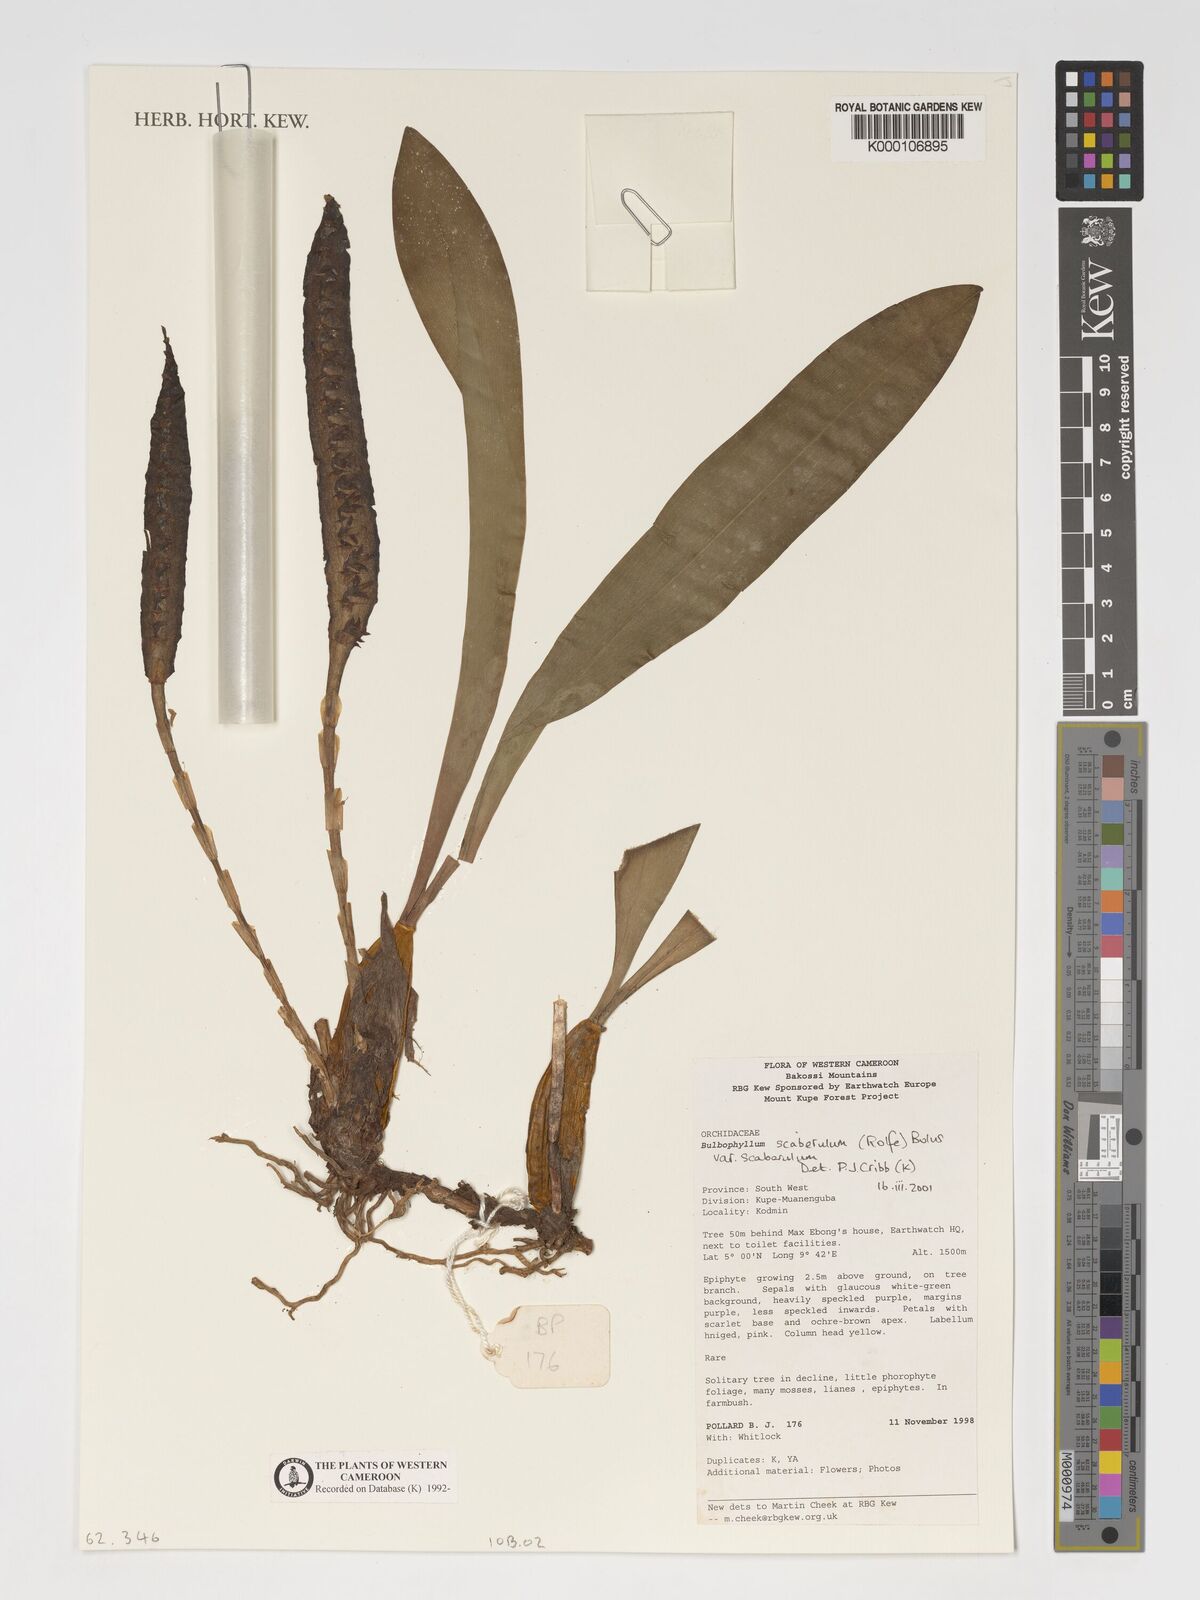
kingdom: Plantae
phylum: Tracheophyta
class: Liliopsida
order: Asparagales
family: Orchidaceae
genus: Bulbophyllum
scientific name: Bulbophyllum scaberulum
